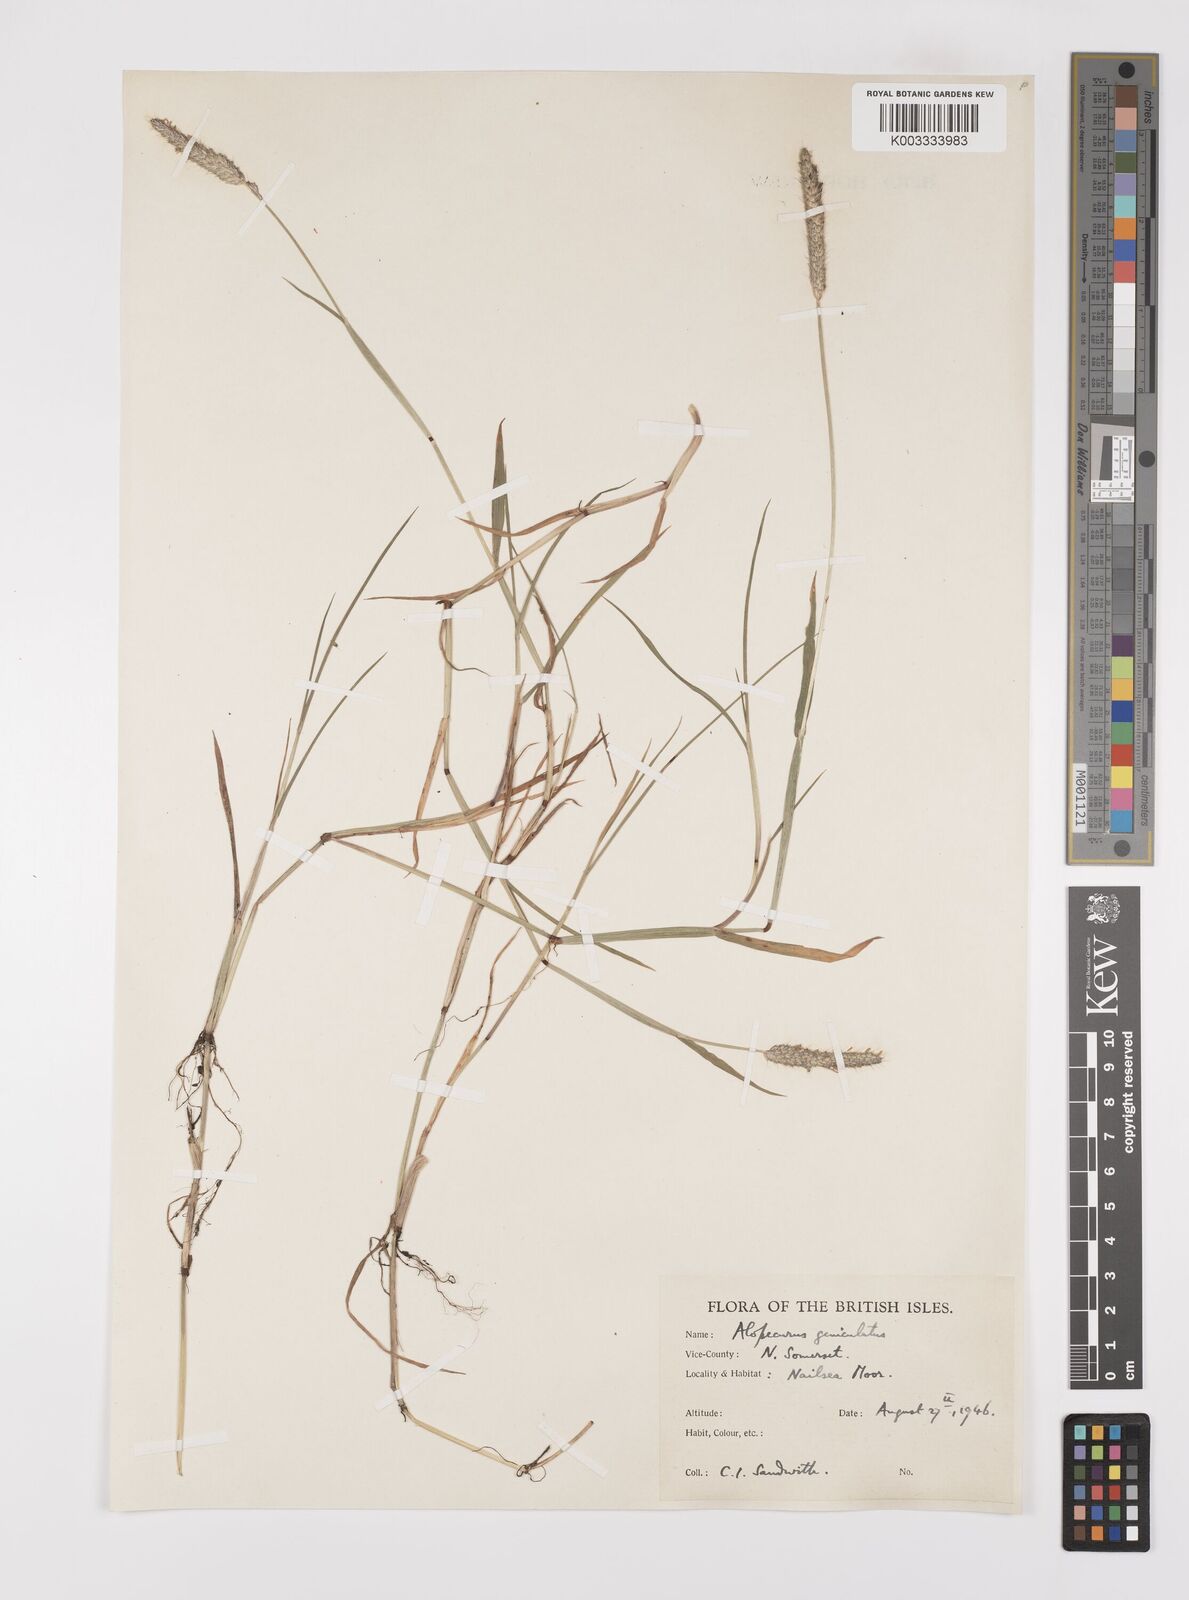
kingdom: Plantae
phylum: Tracheophyta
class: Liliopsida
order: Poales
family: Poaceae
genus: Alopecurus
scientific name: Alopecurus geniculatus
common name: Water foxtail
